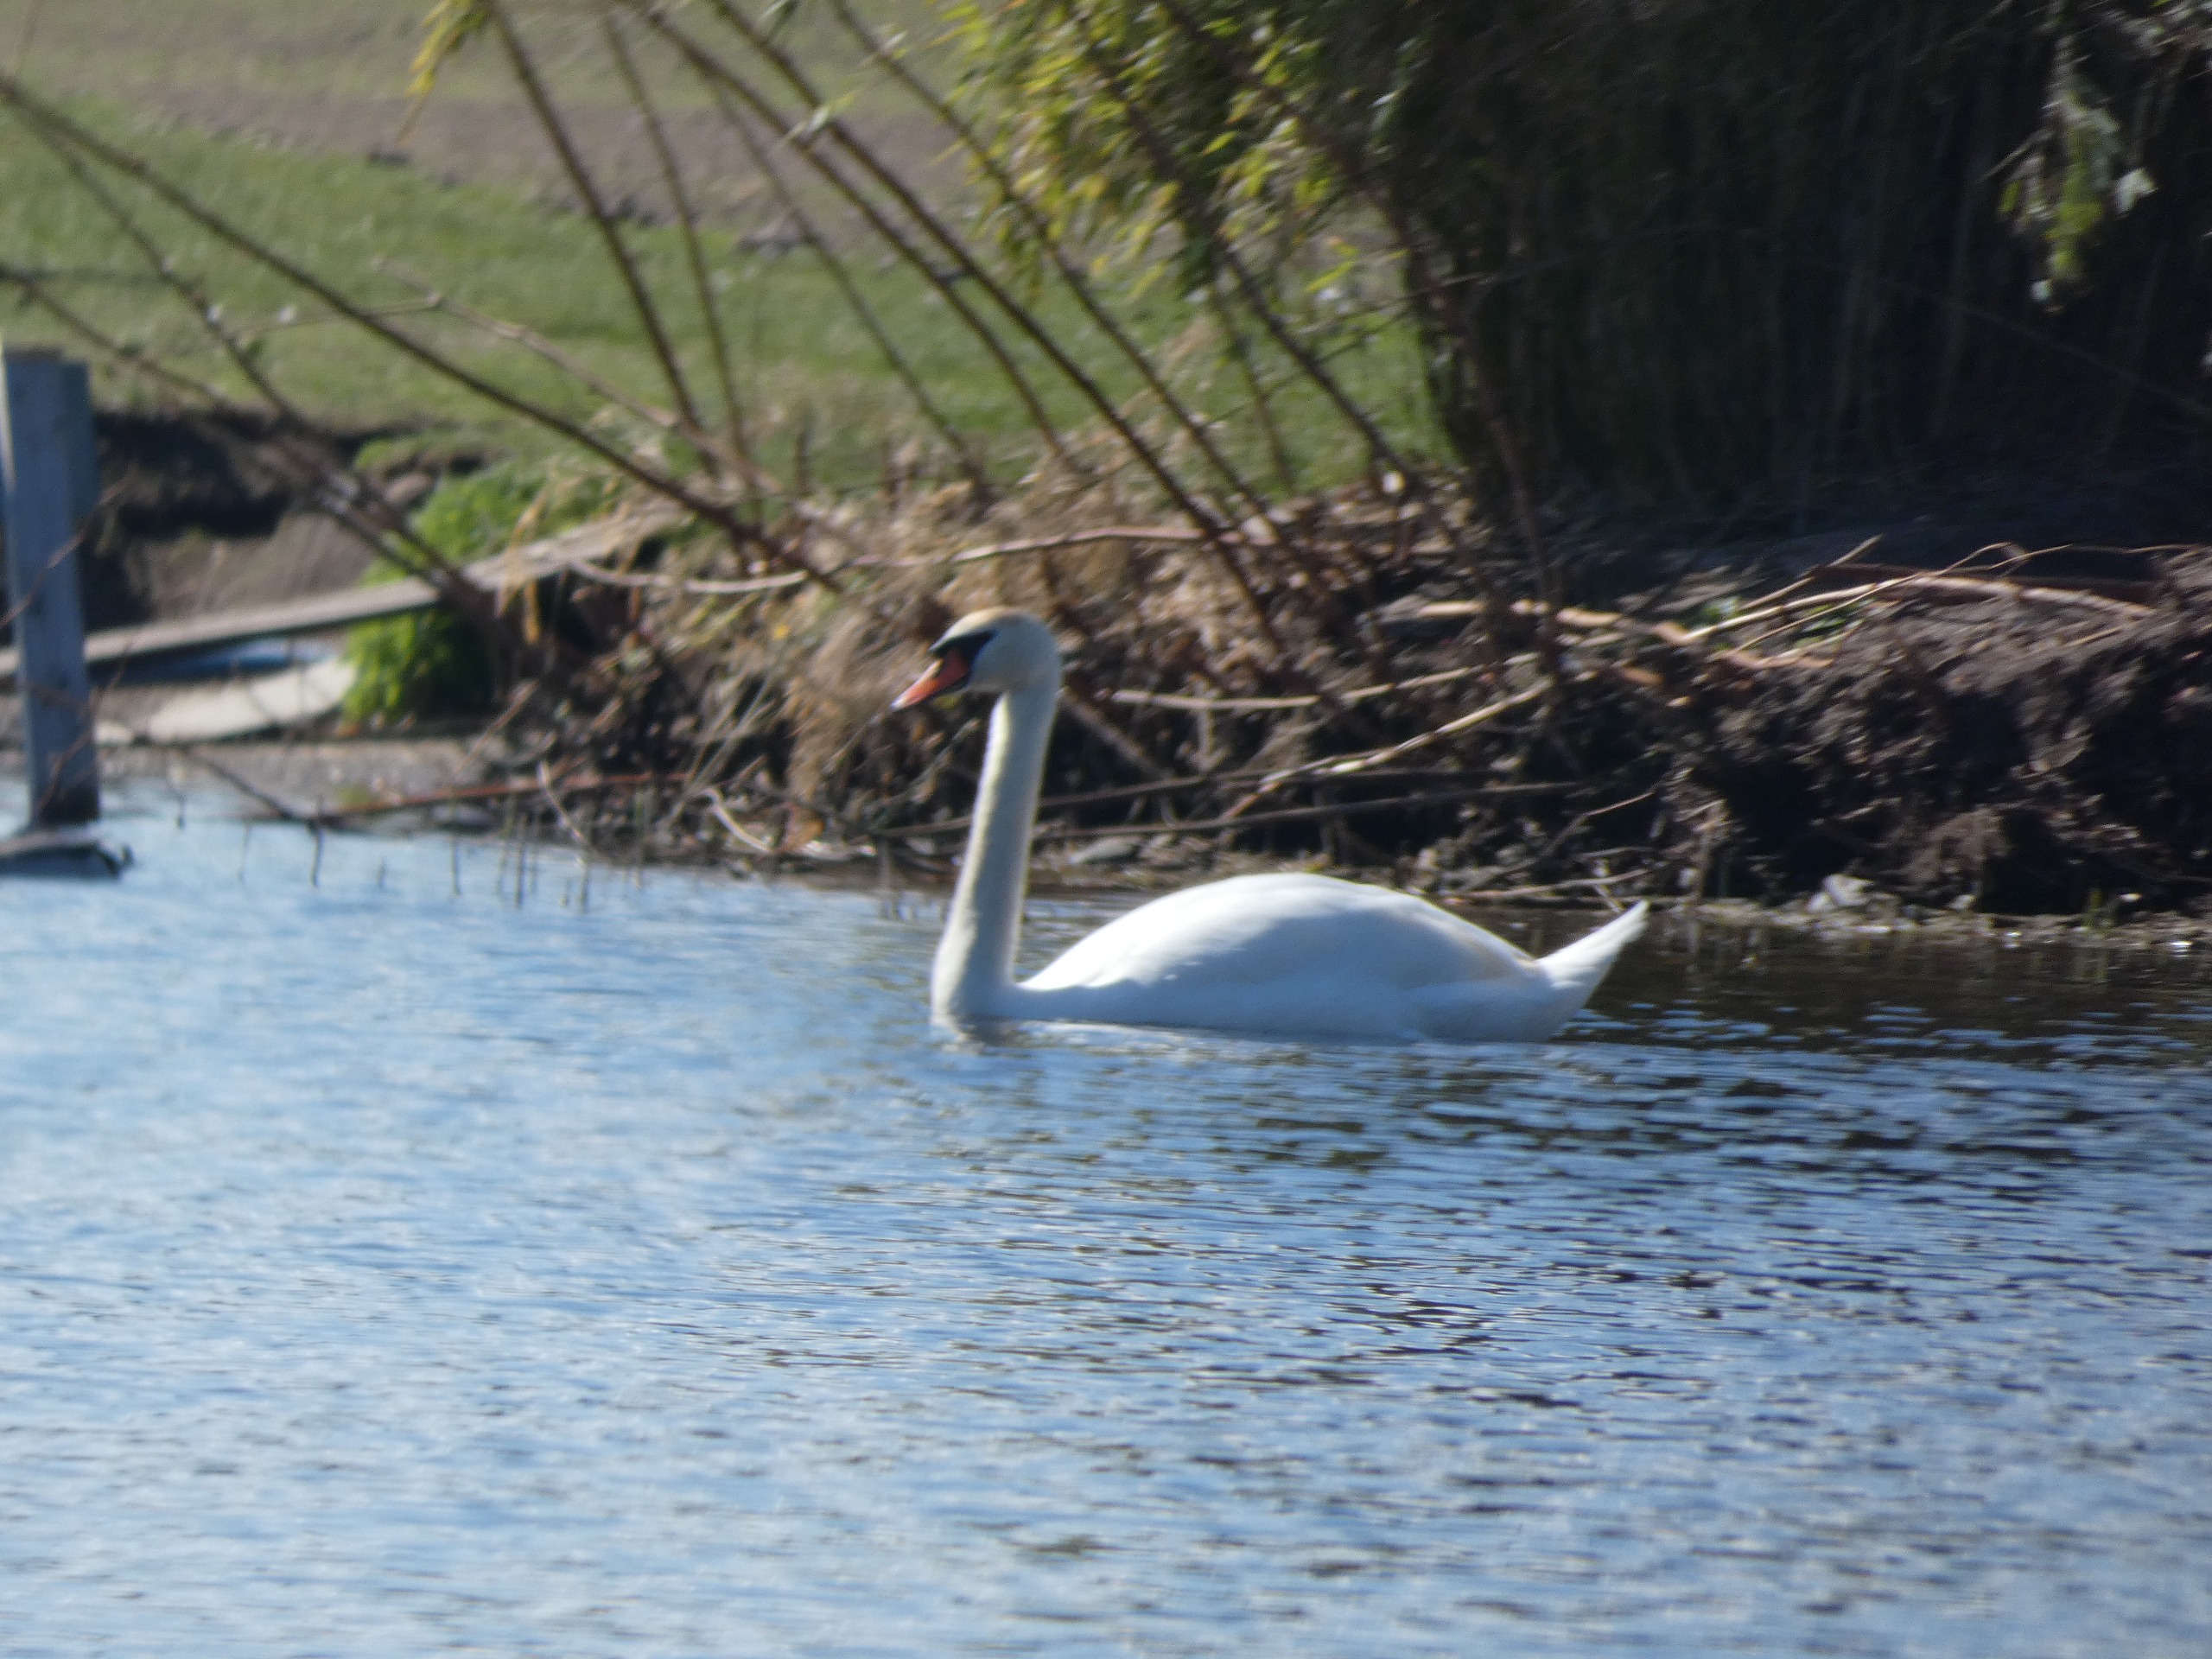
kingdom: Animalia
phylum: Chordata
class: Aves
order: Anseriformes
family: Anatidae
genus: Cygnus
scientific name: Cygnus olor
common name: Knopsvane
